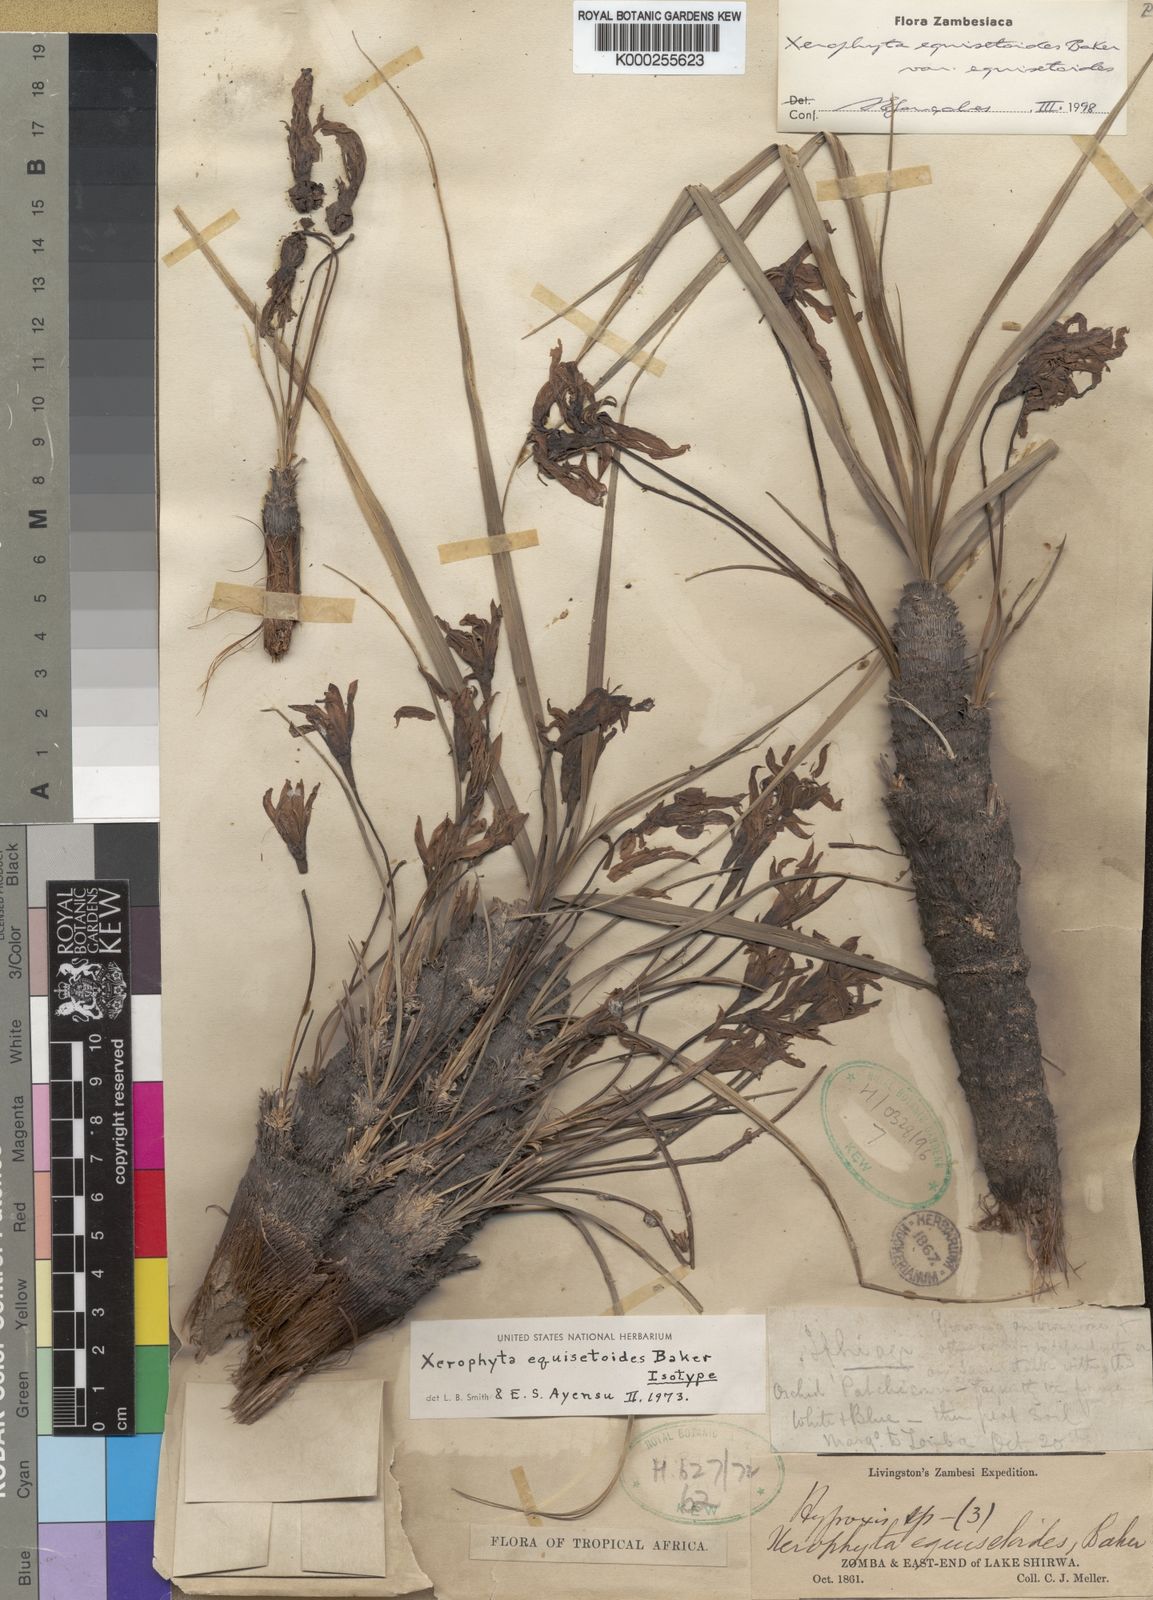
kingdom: Plantae
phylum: Tracheophyta
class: Liliopsida
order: Pandanales
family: Velloziaceae
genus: Xerophyta
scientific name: Xerophyta equisetoides
